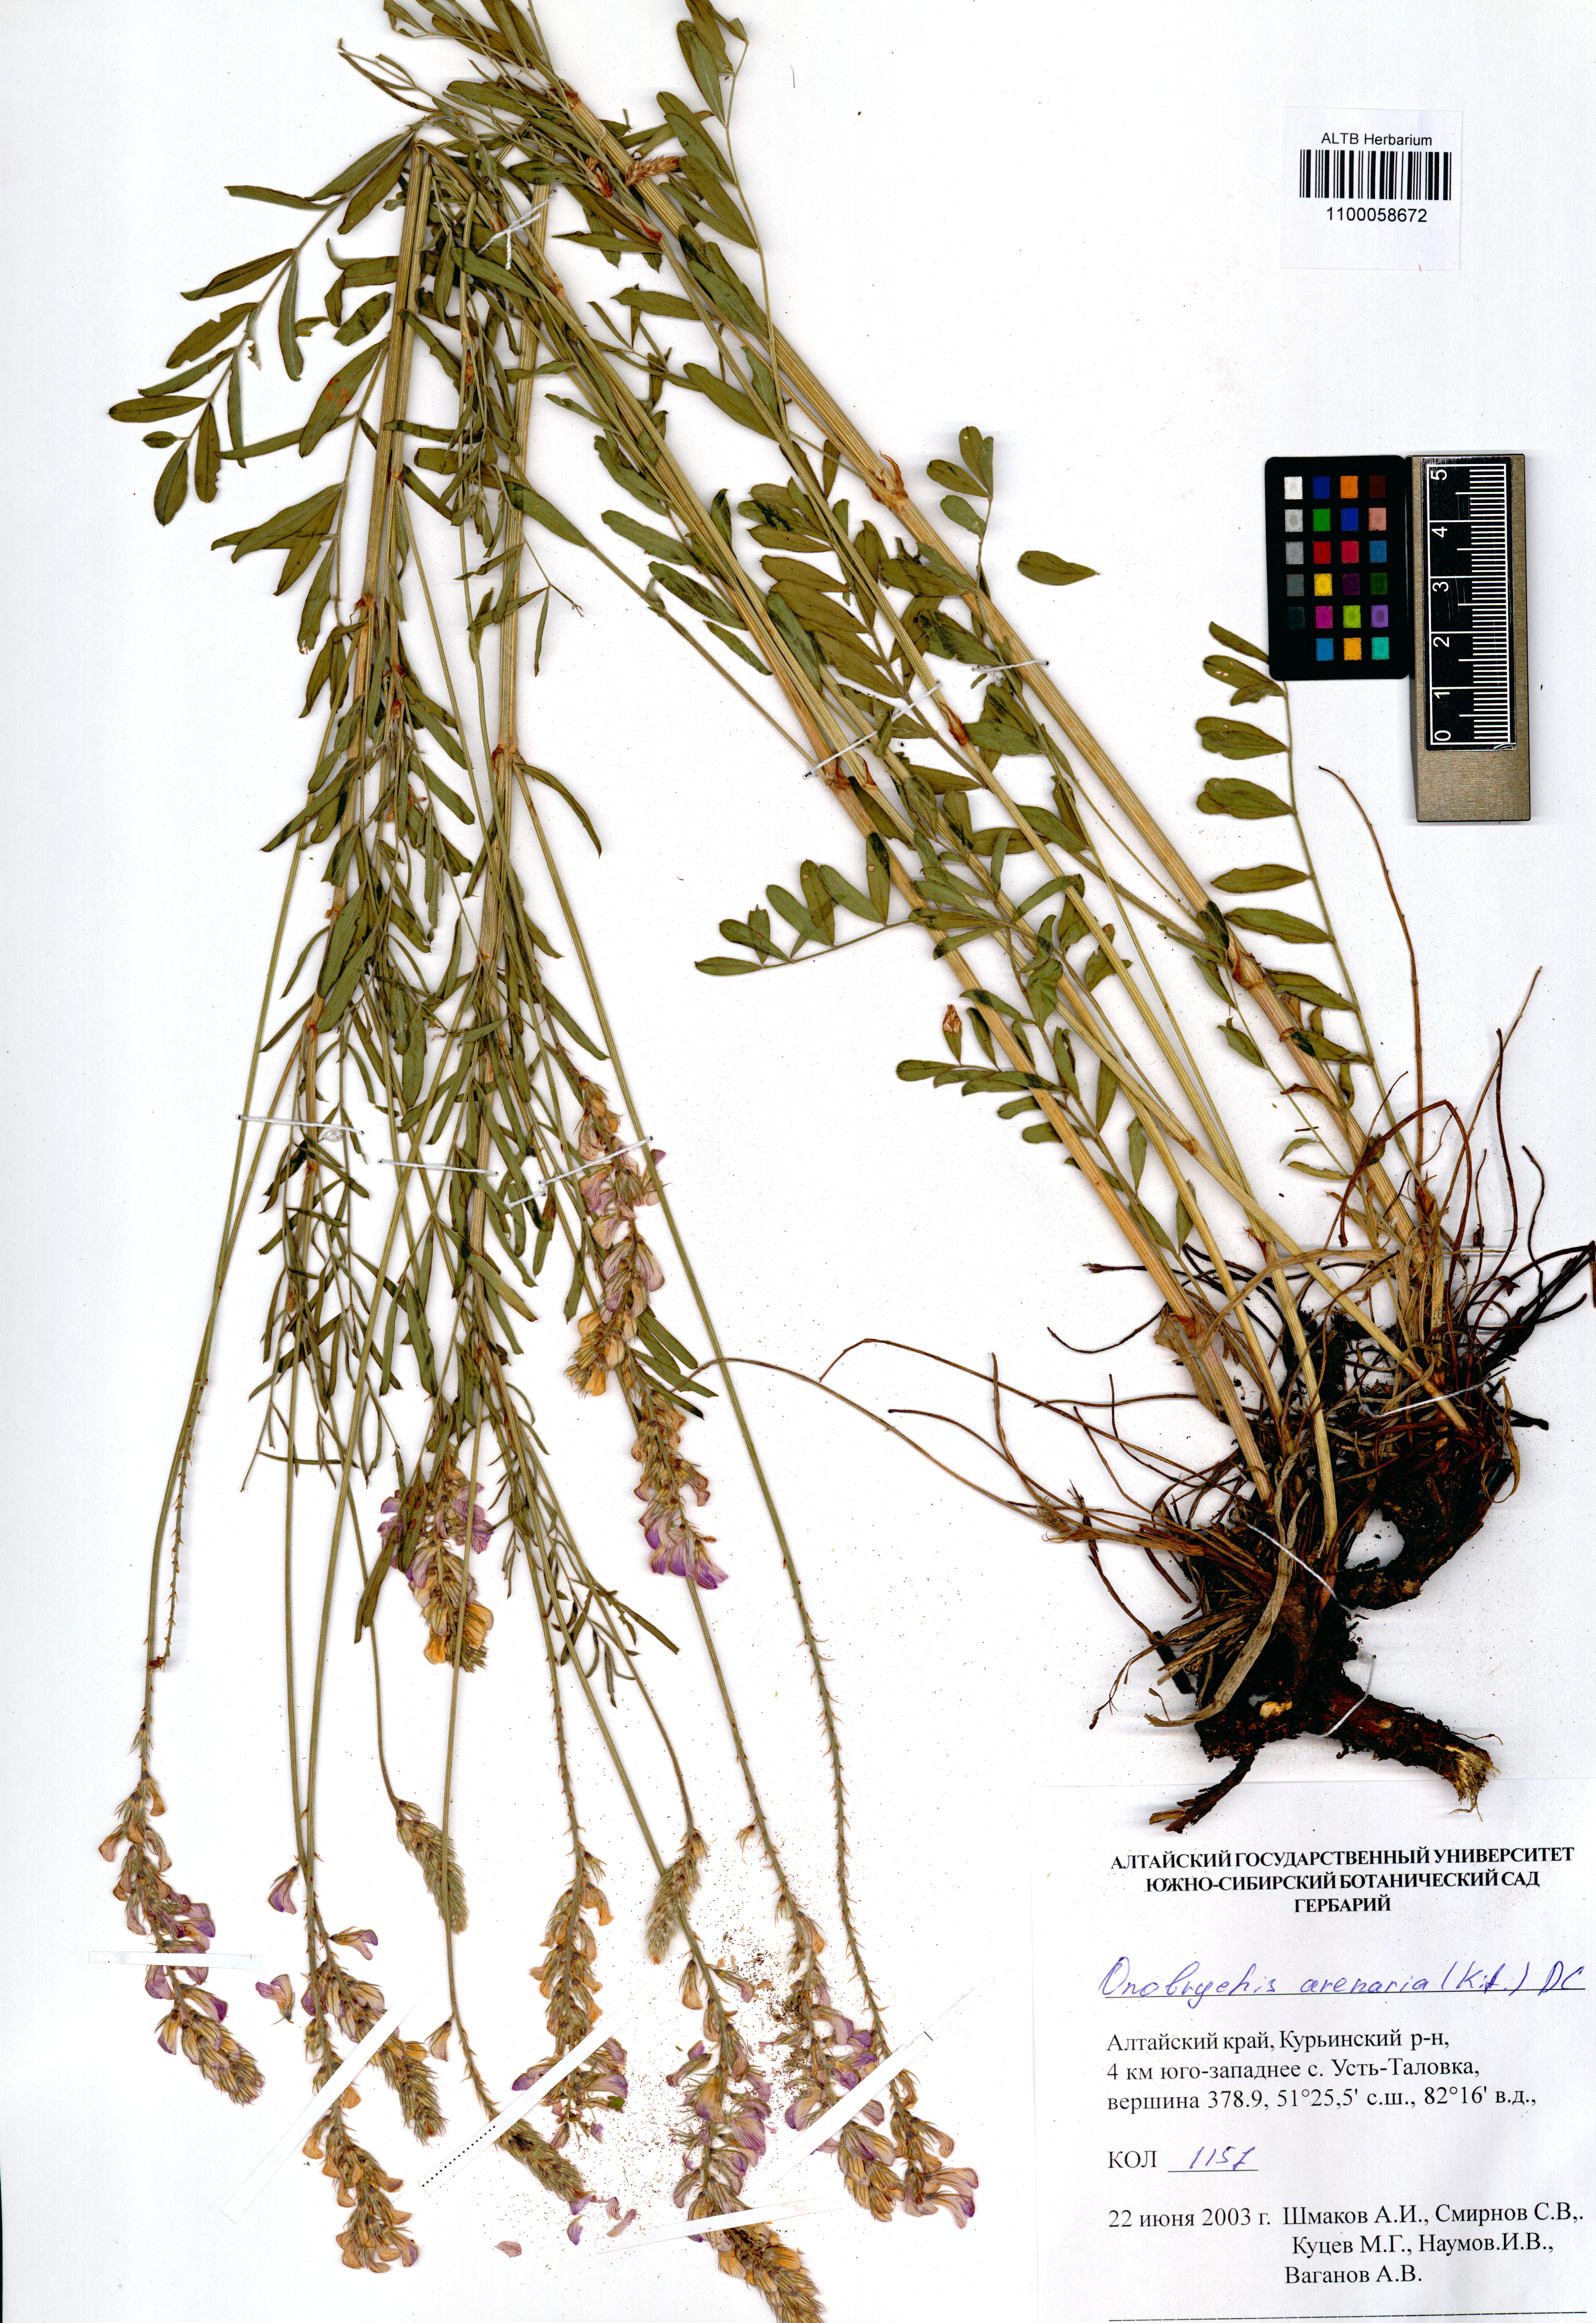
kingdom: Plantae
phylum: Tracheophyta
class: Magnoliopsida
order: Fabales
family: Fabaceae
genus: Onobrychis
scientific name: Onobrychis arenaria
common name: Sand esparcet
